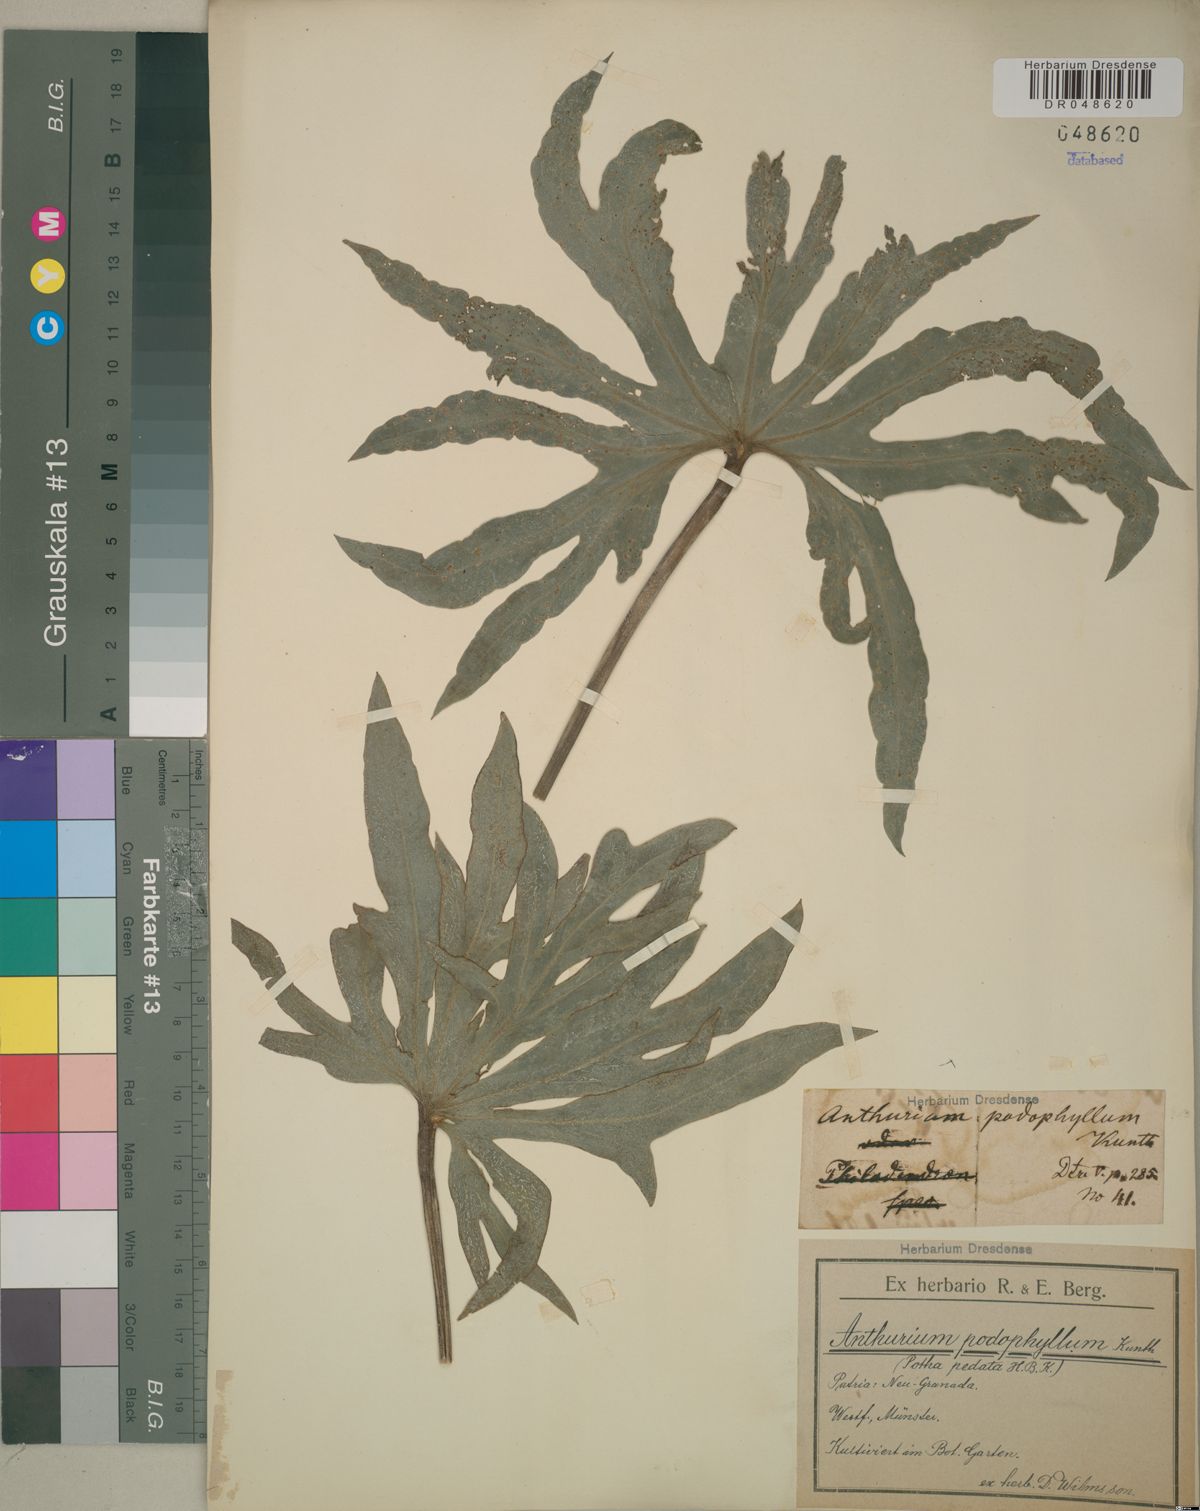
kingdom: Plantae
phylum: Tracheophyta
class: Liliopsida
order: Alismatales
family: Araceae
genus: Anthurium
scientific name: Anthurium podophyllum
